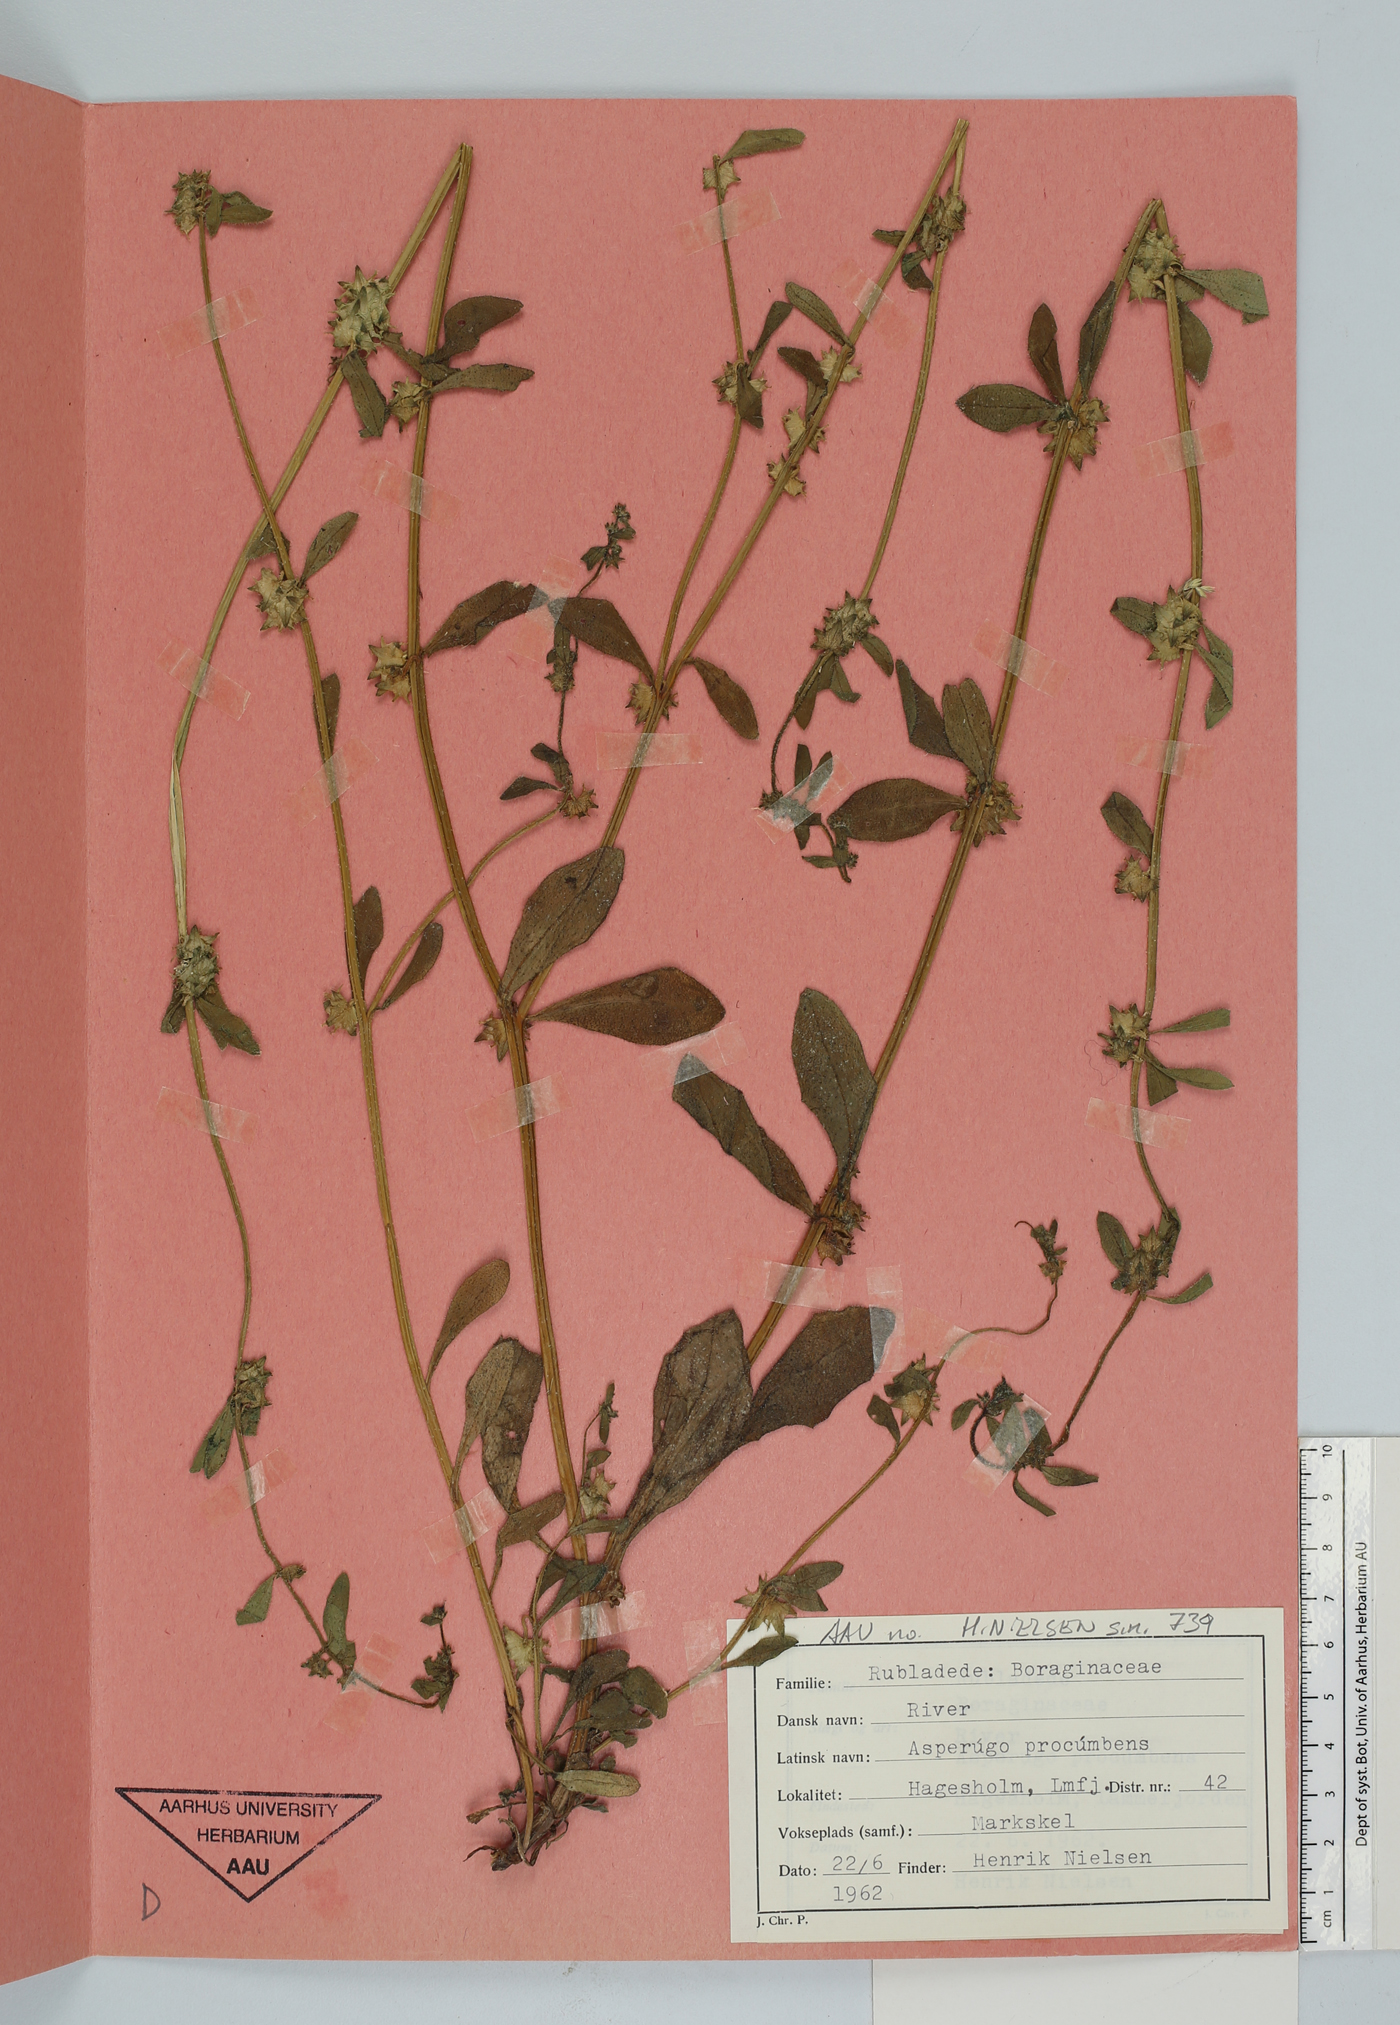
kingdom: Plantae
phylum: Tracheophyta
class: Magnoliopsida
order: Boraginales
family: Boraginaceae
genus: Asperugo
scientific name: Asperugo procumbens
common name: Madwort
